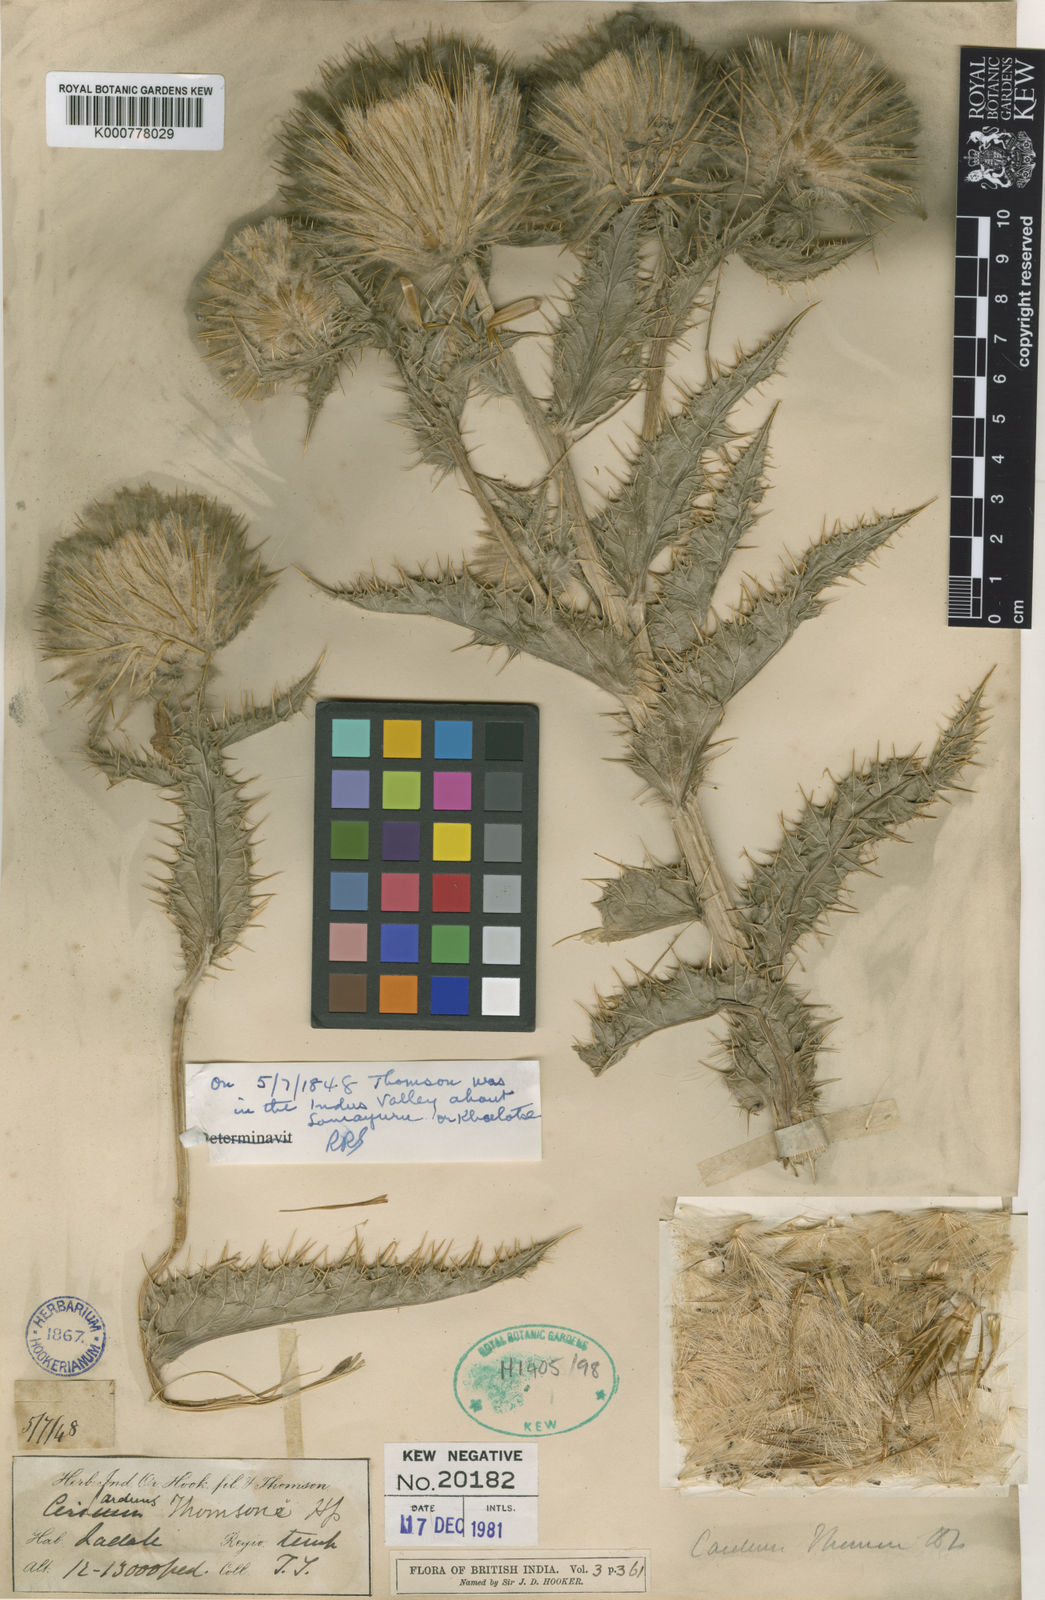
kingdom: Plantae
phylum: Tracheophyta
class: Magnoliopsida
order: Asterales
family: Asteraceae
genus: Olgaea
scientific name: Olgaea thomsonii
